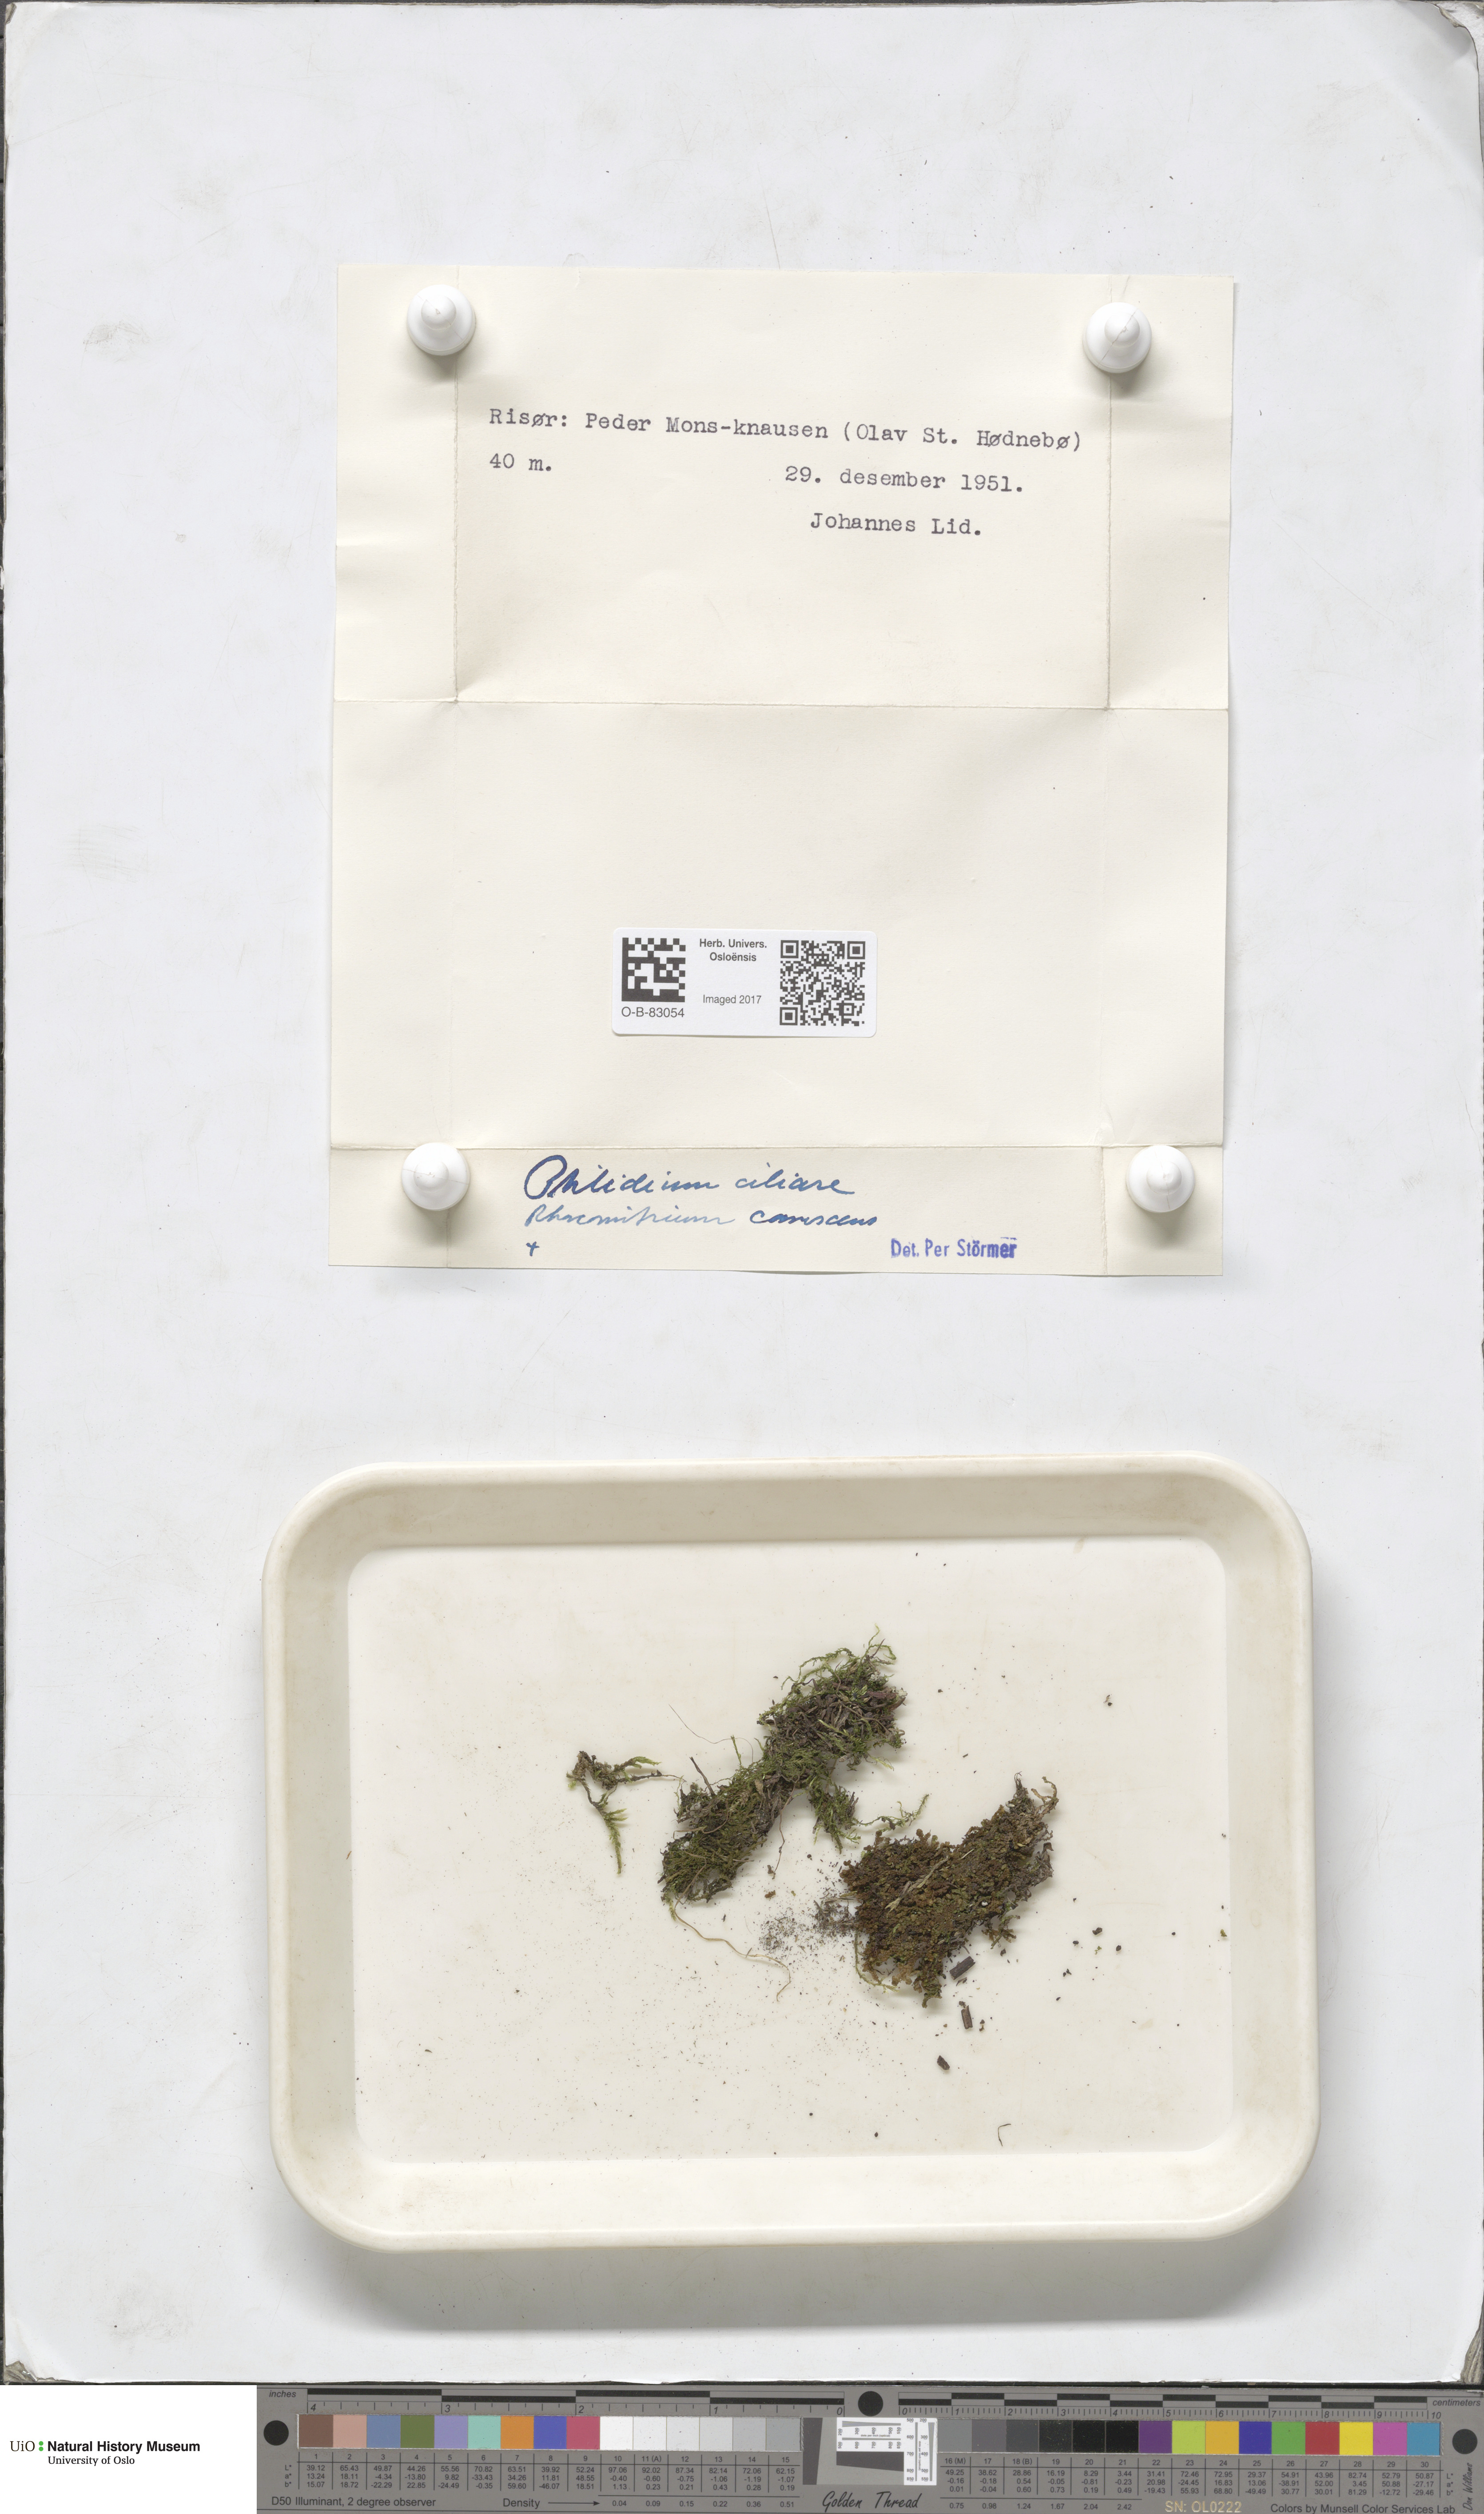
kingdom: Plantae
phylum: Marchantiophyta
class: Jungermanniopsida
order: Ptilidiales
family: Ptilidiaceae
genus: Ptilidium
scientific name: Ptilidium ciliare
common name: Ciliate fringewort
